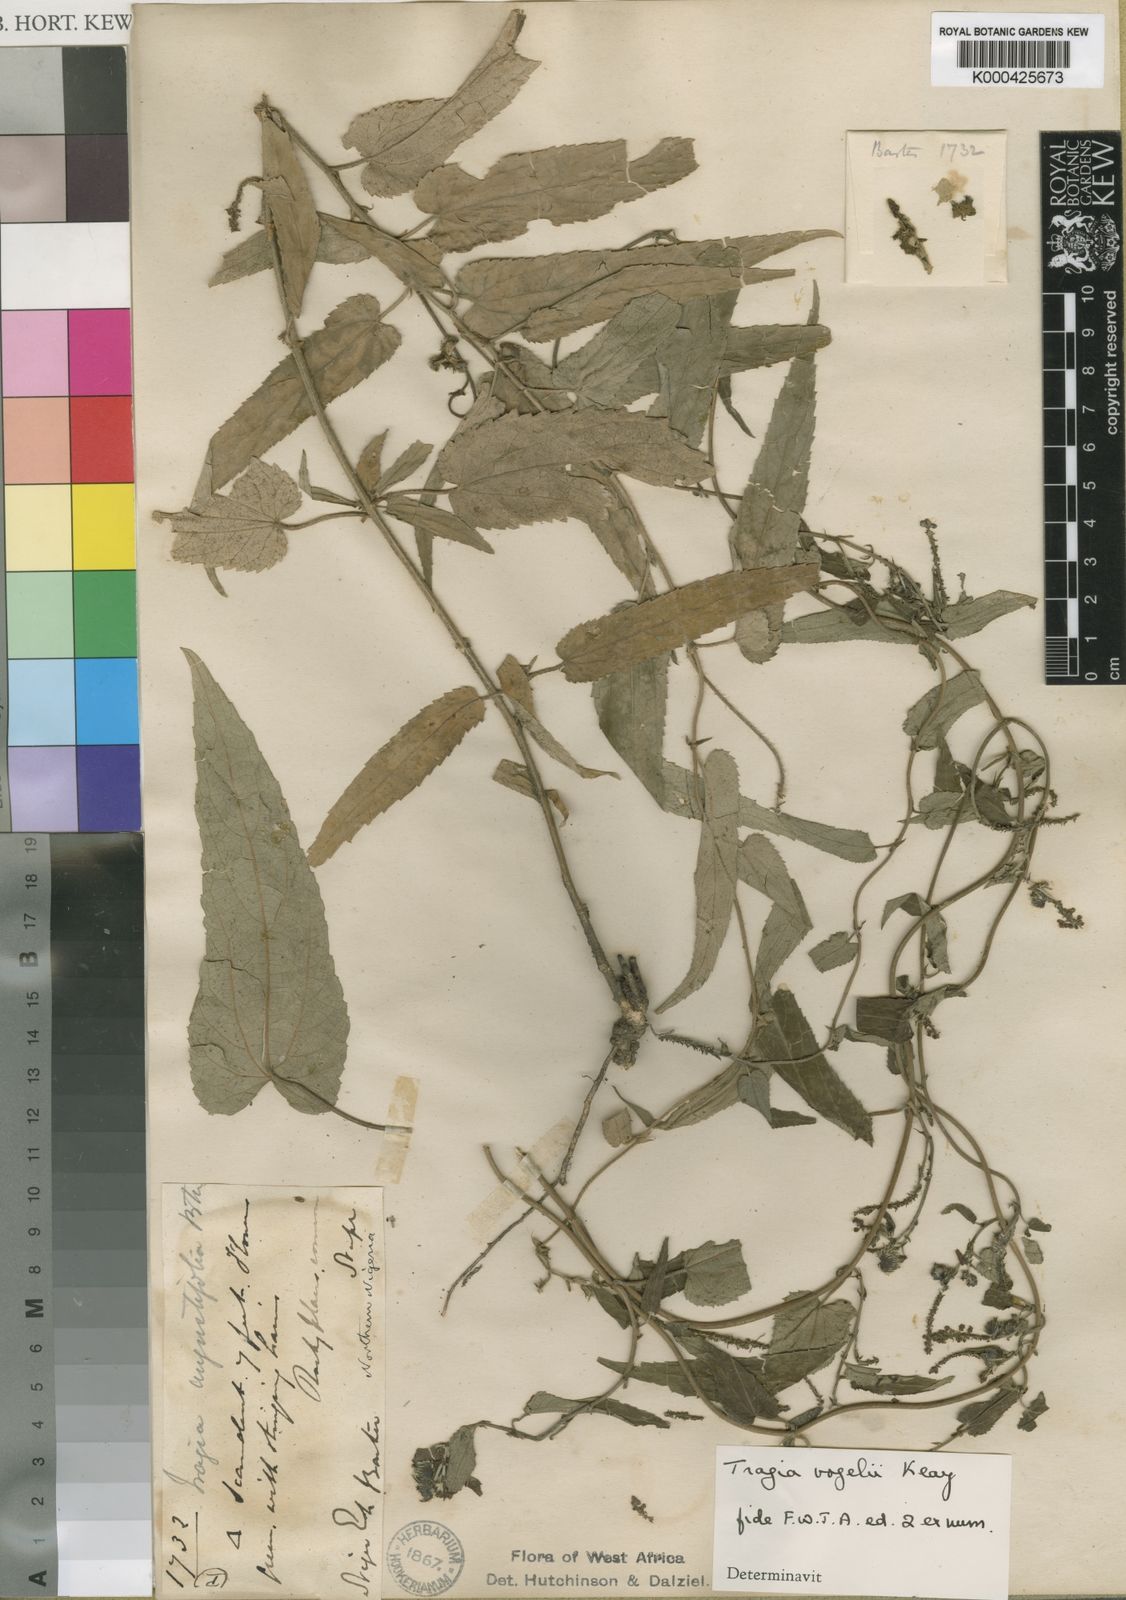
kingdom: Plantae
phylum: Tracheophyta
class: Magnoliopsida
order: Malpighiales
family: Euphorbiaceae
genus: Tragia
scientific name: Tragia vogelii
